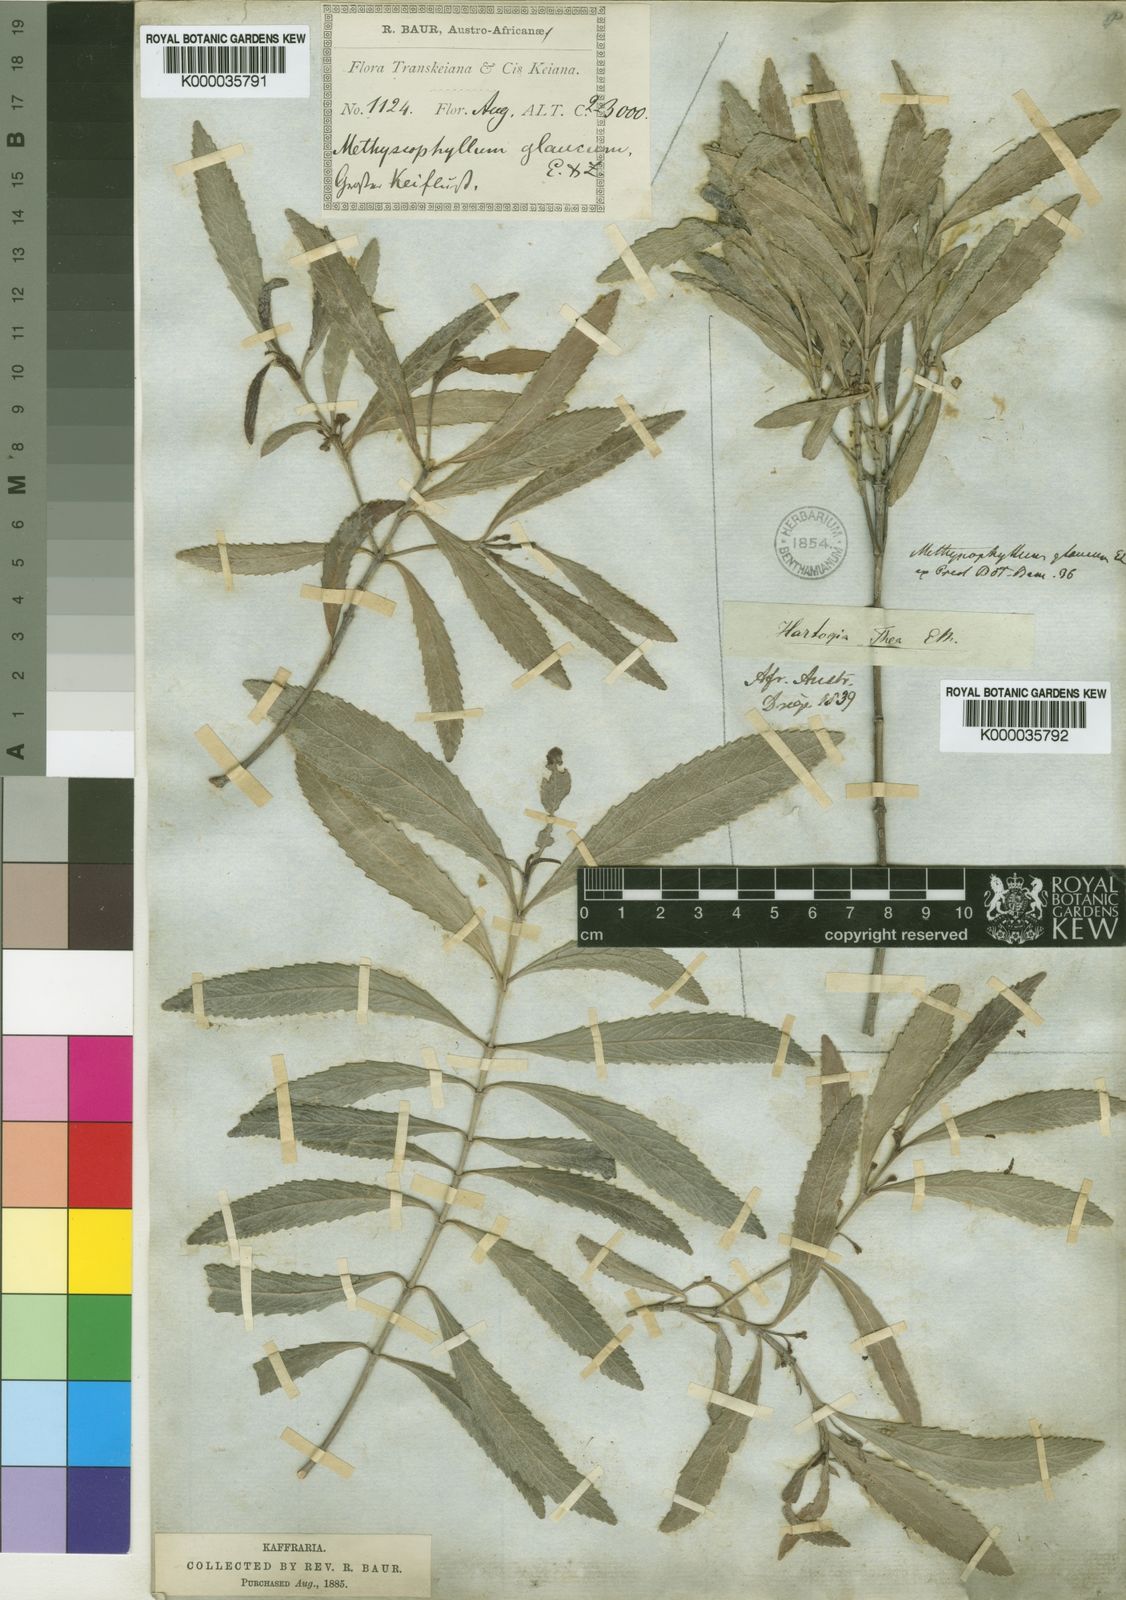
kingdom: Plantae
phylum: Tracheophyta
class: Magnoliopsida
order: Celastrales
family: Celastraceae
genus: Catha
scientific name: Catha edulis
